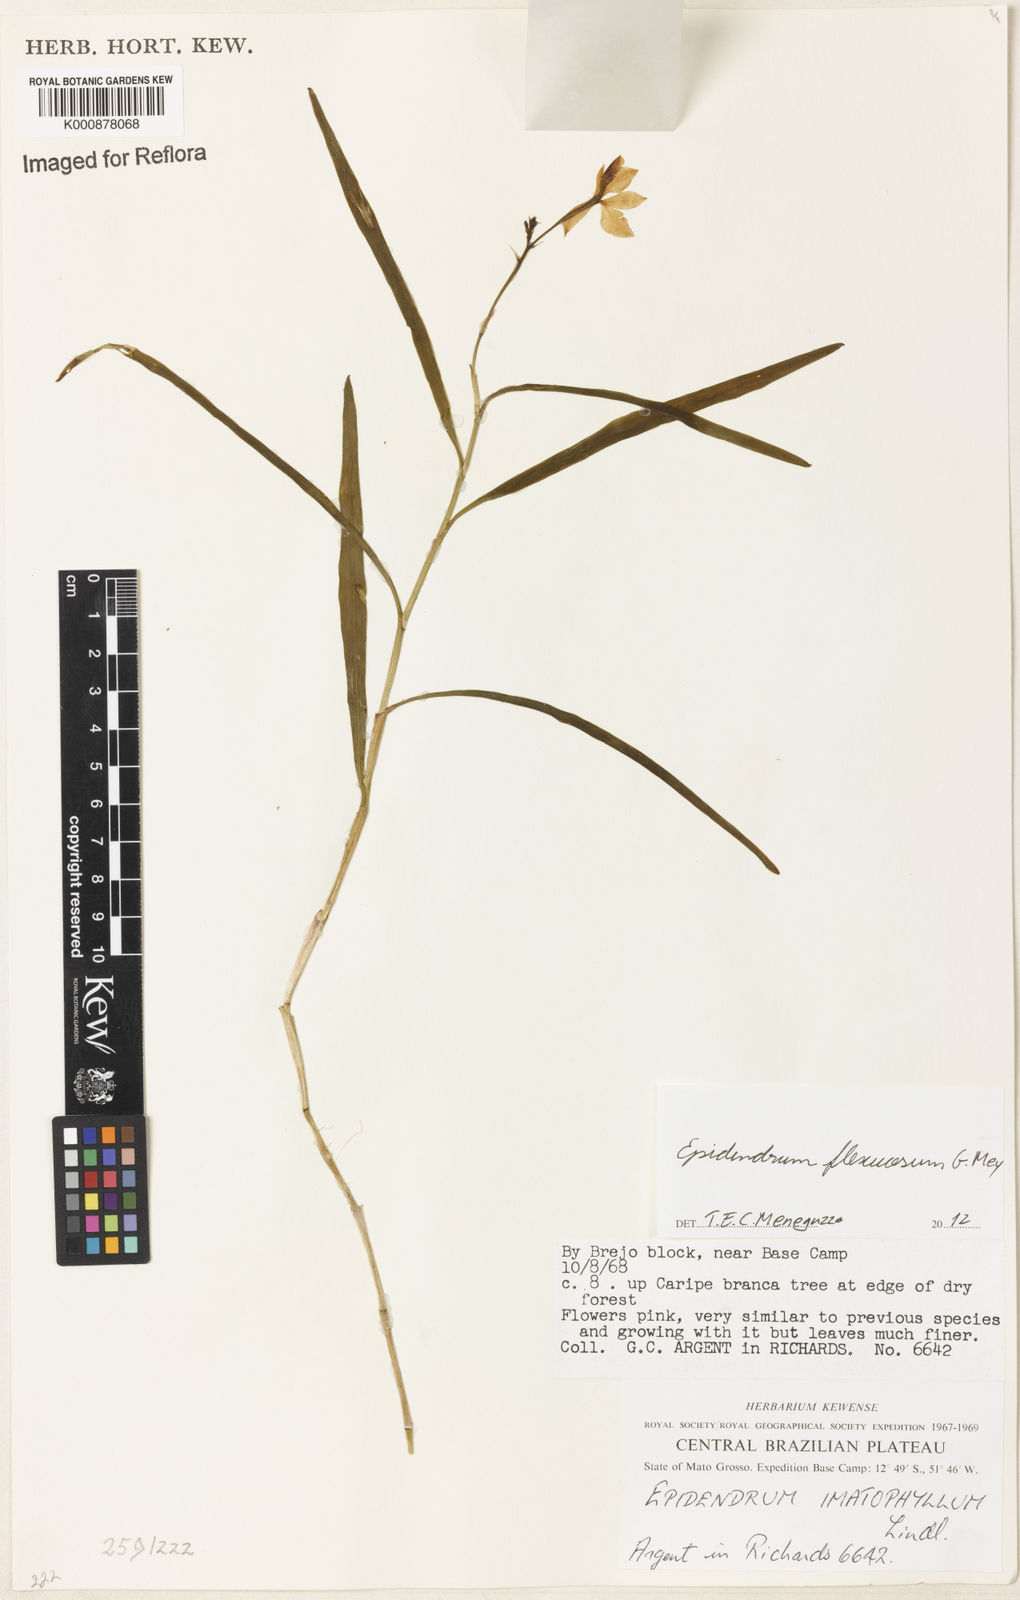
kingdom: Plantae
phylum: Tracheophyta
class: Liliopsida
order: Asparagales
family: Orchidaceae
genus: Epidendrum
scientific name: Epidendrum flexuosum
